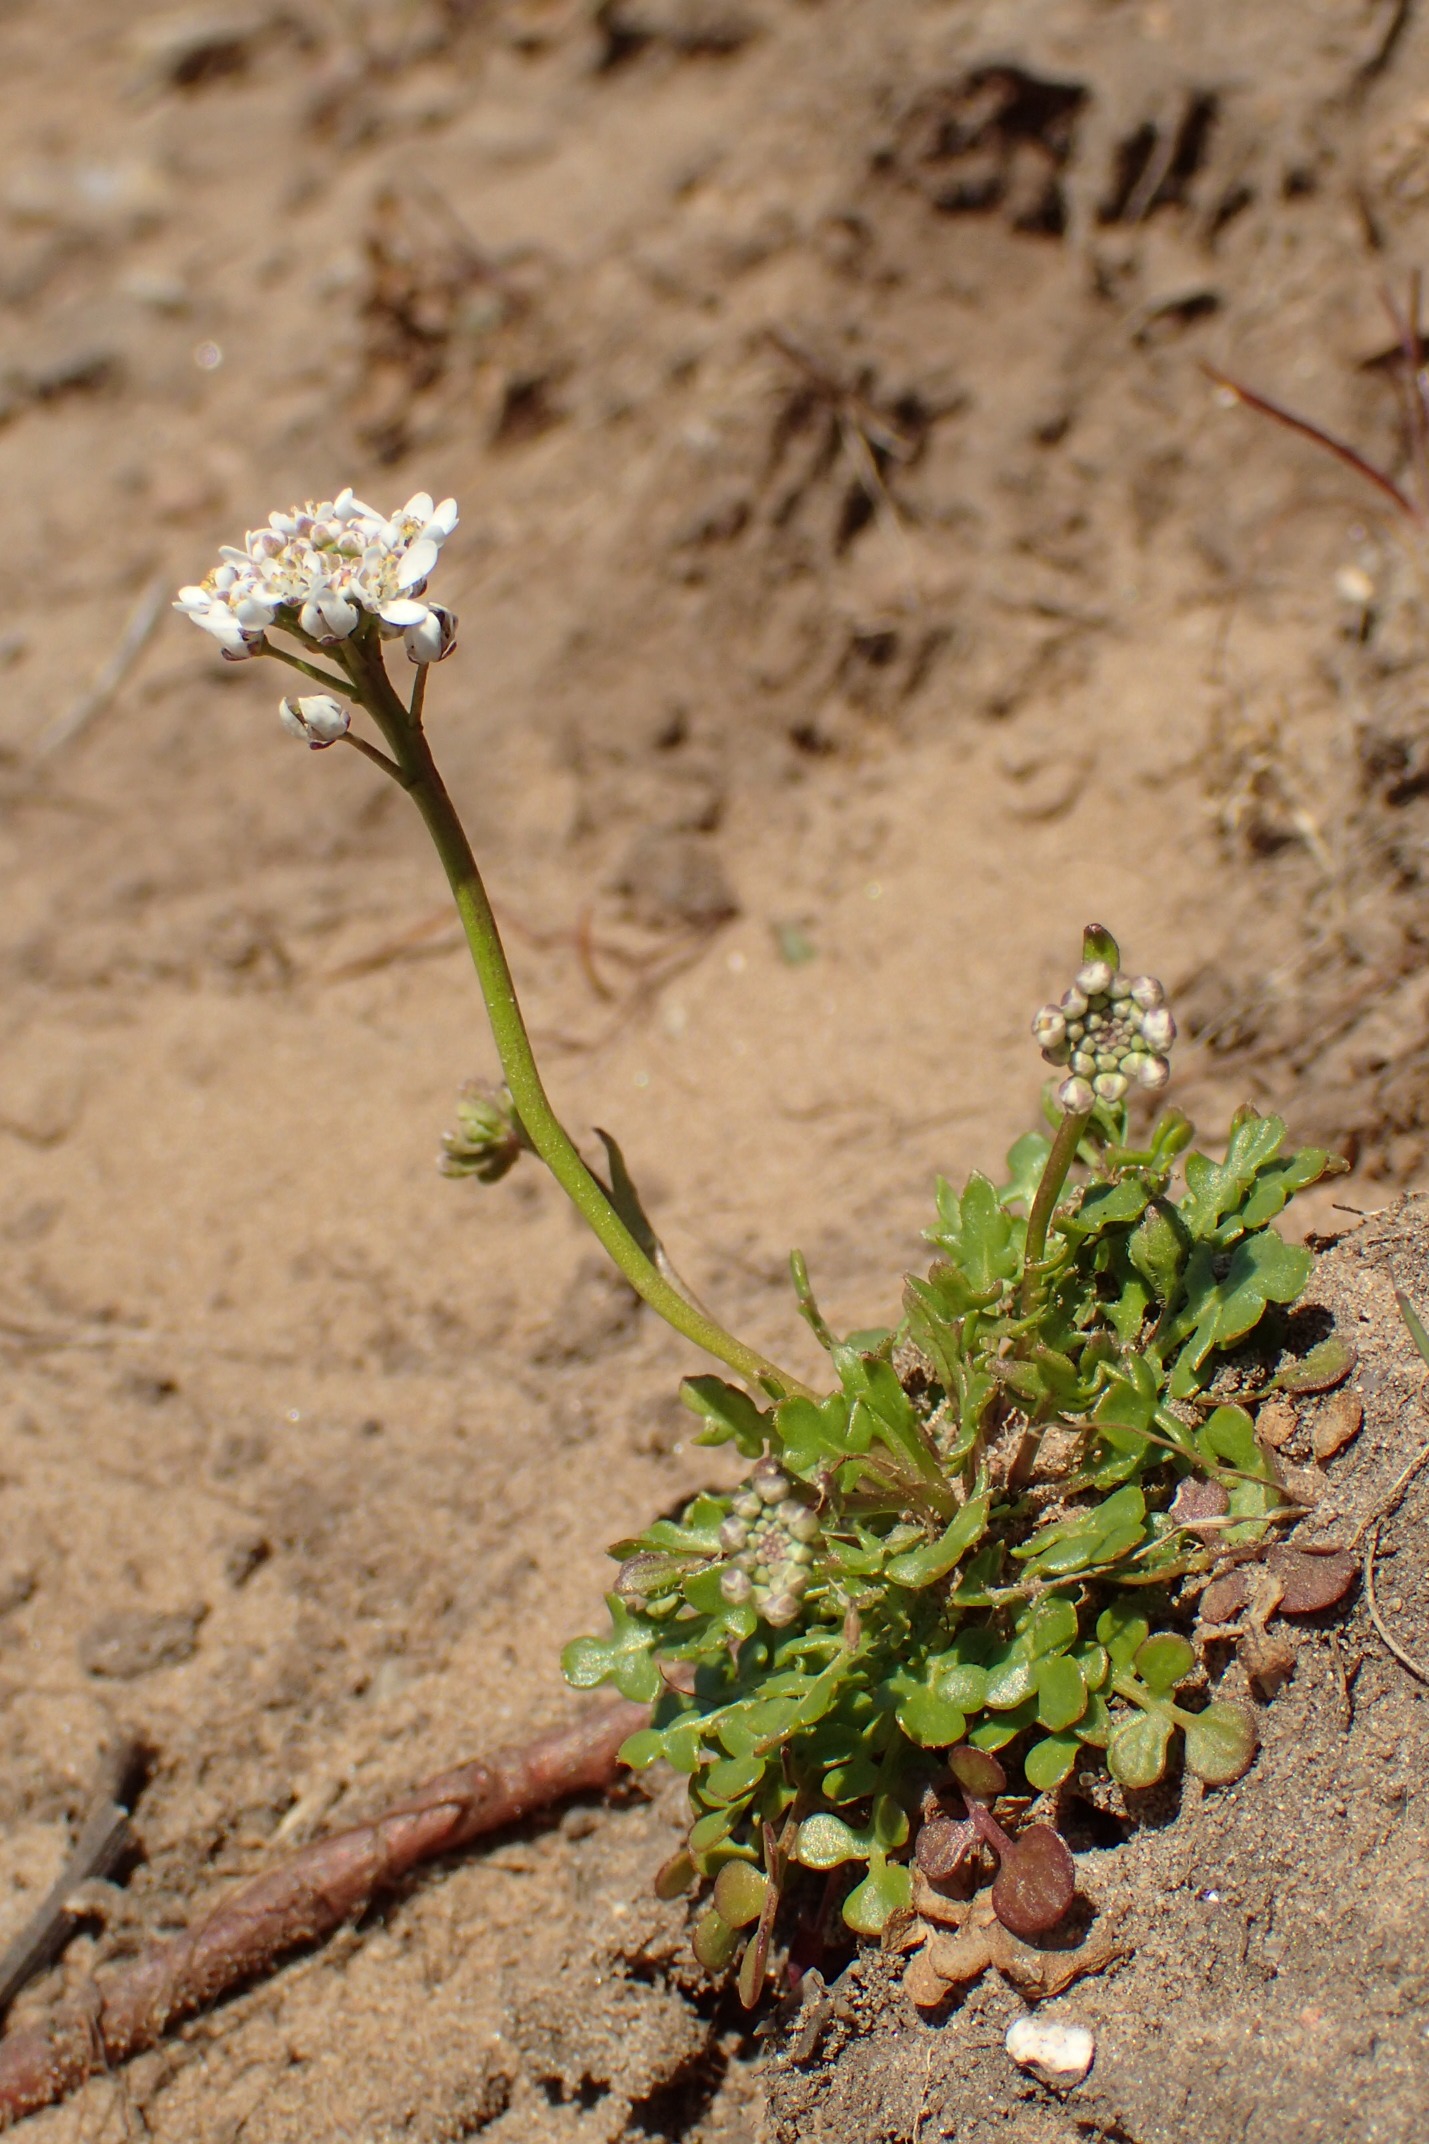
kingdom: Plantae
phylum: Tracheophyta
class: Magnoliopsida
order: Brassicales
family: Brassicaceae
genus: Teesdalia
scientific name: Teesdalia nudicaulis
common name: Flipkrave
